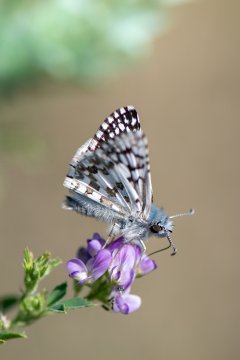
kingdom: Animalia
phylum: Arthropoda
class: Insecta
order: Lepidoptera
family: Hesperiidae
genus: Burnsius
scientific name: Burnsius communis
